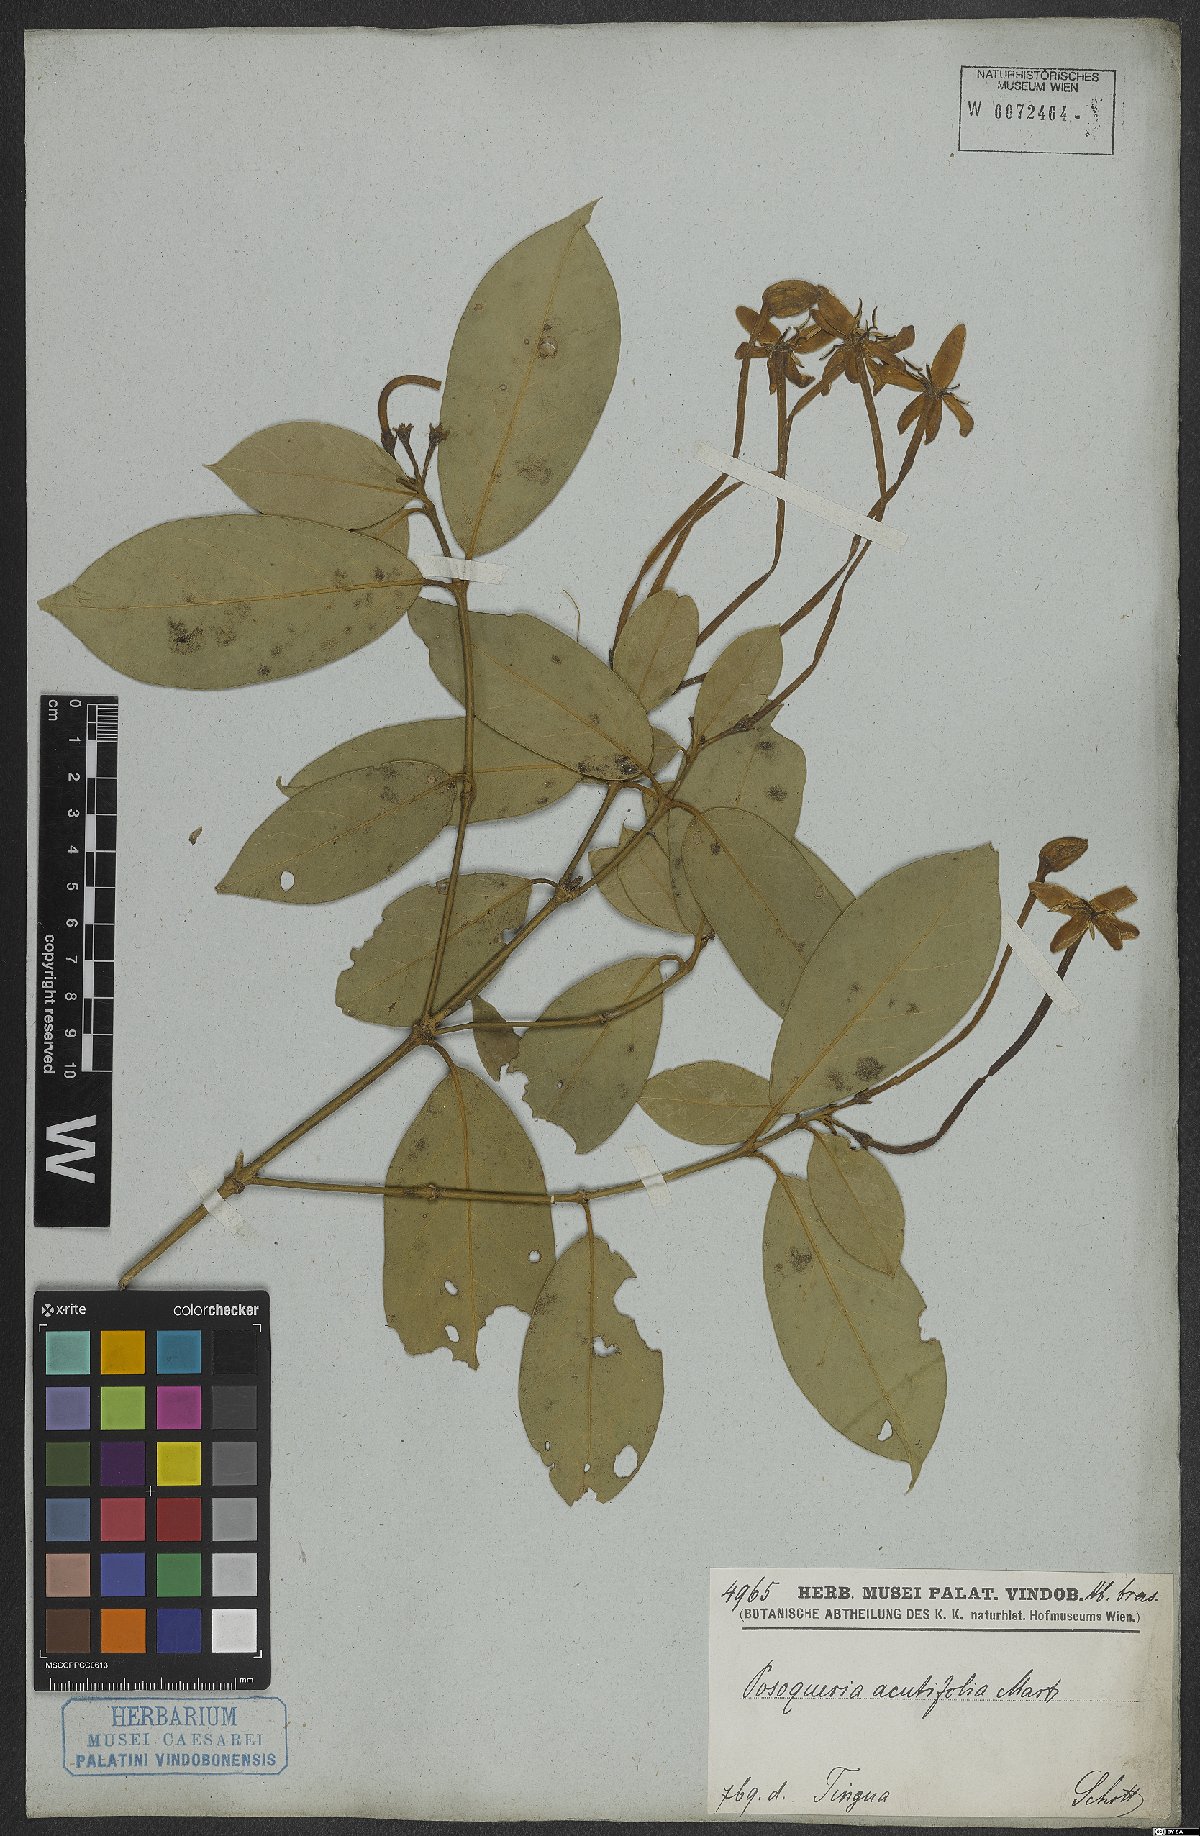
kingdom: Plantae
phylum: Tracheophyta
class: Magnoliopsida
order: Gentianales
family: Rubiaceae
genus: Posoqueria
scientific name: Posoqueria acutifolia
